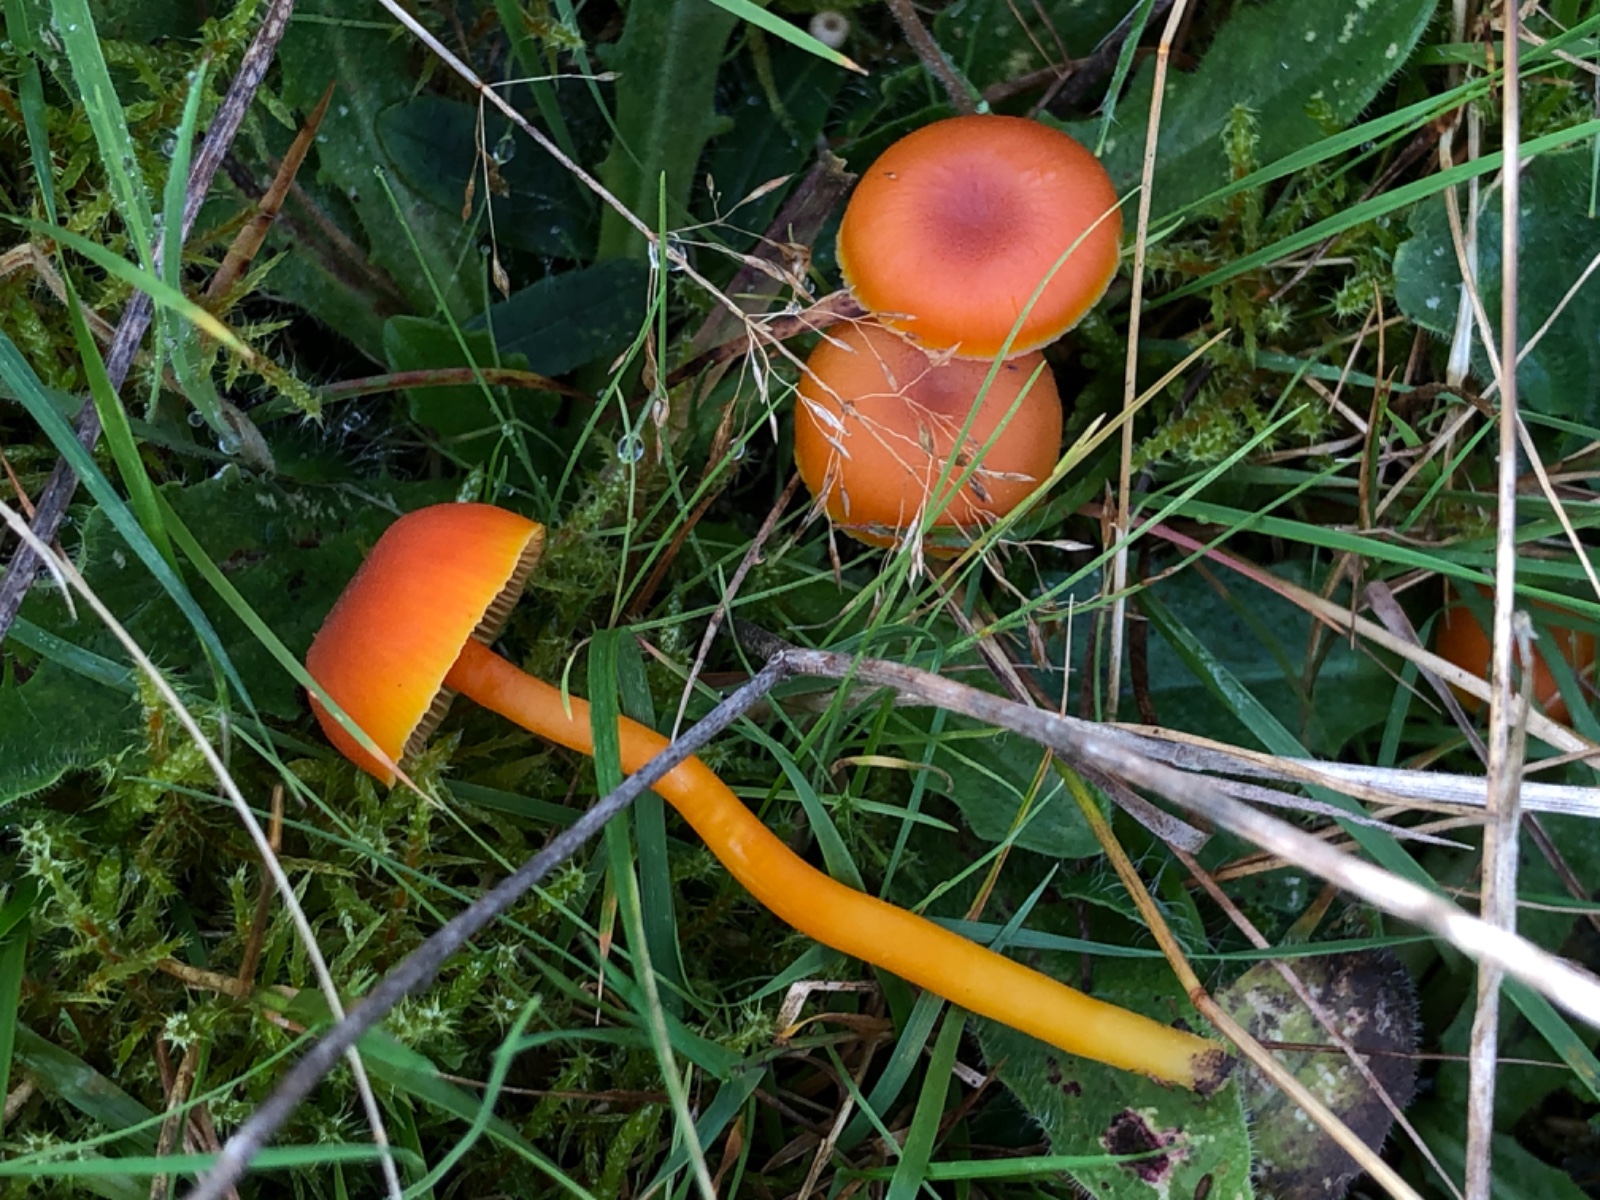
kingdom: Fungi
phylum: Basidiomycota
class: Agaricomycetes
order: Agaricales
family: Hygrophoraceae
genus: Hygrocybe
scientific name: Hygrocybe reidii
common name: honning-vokshat
